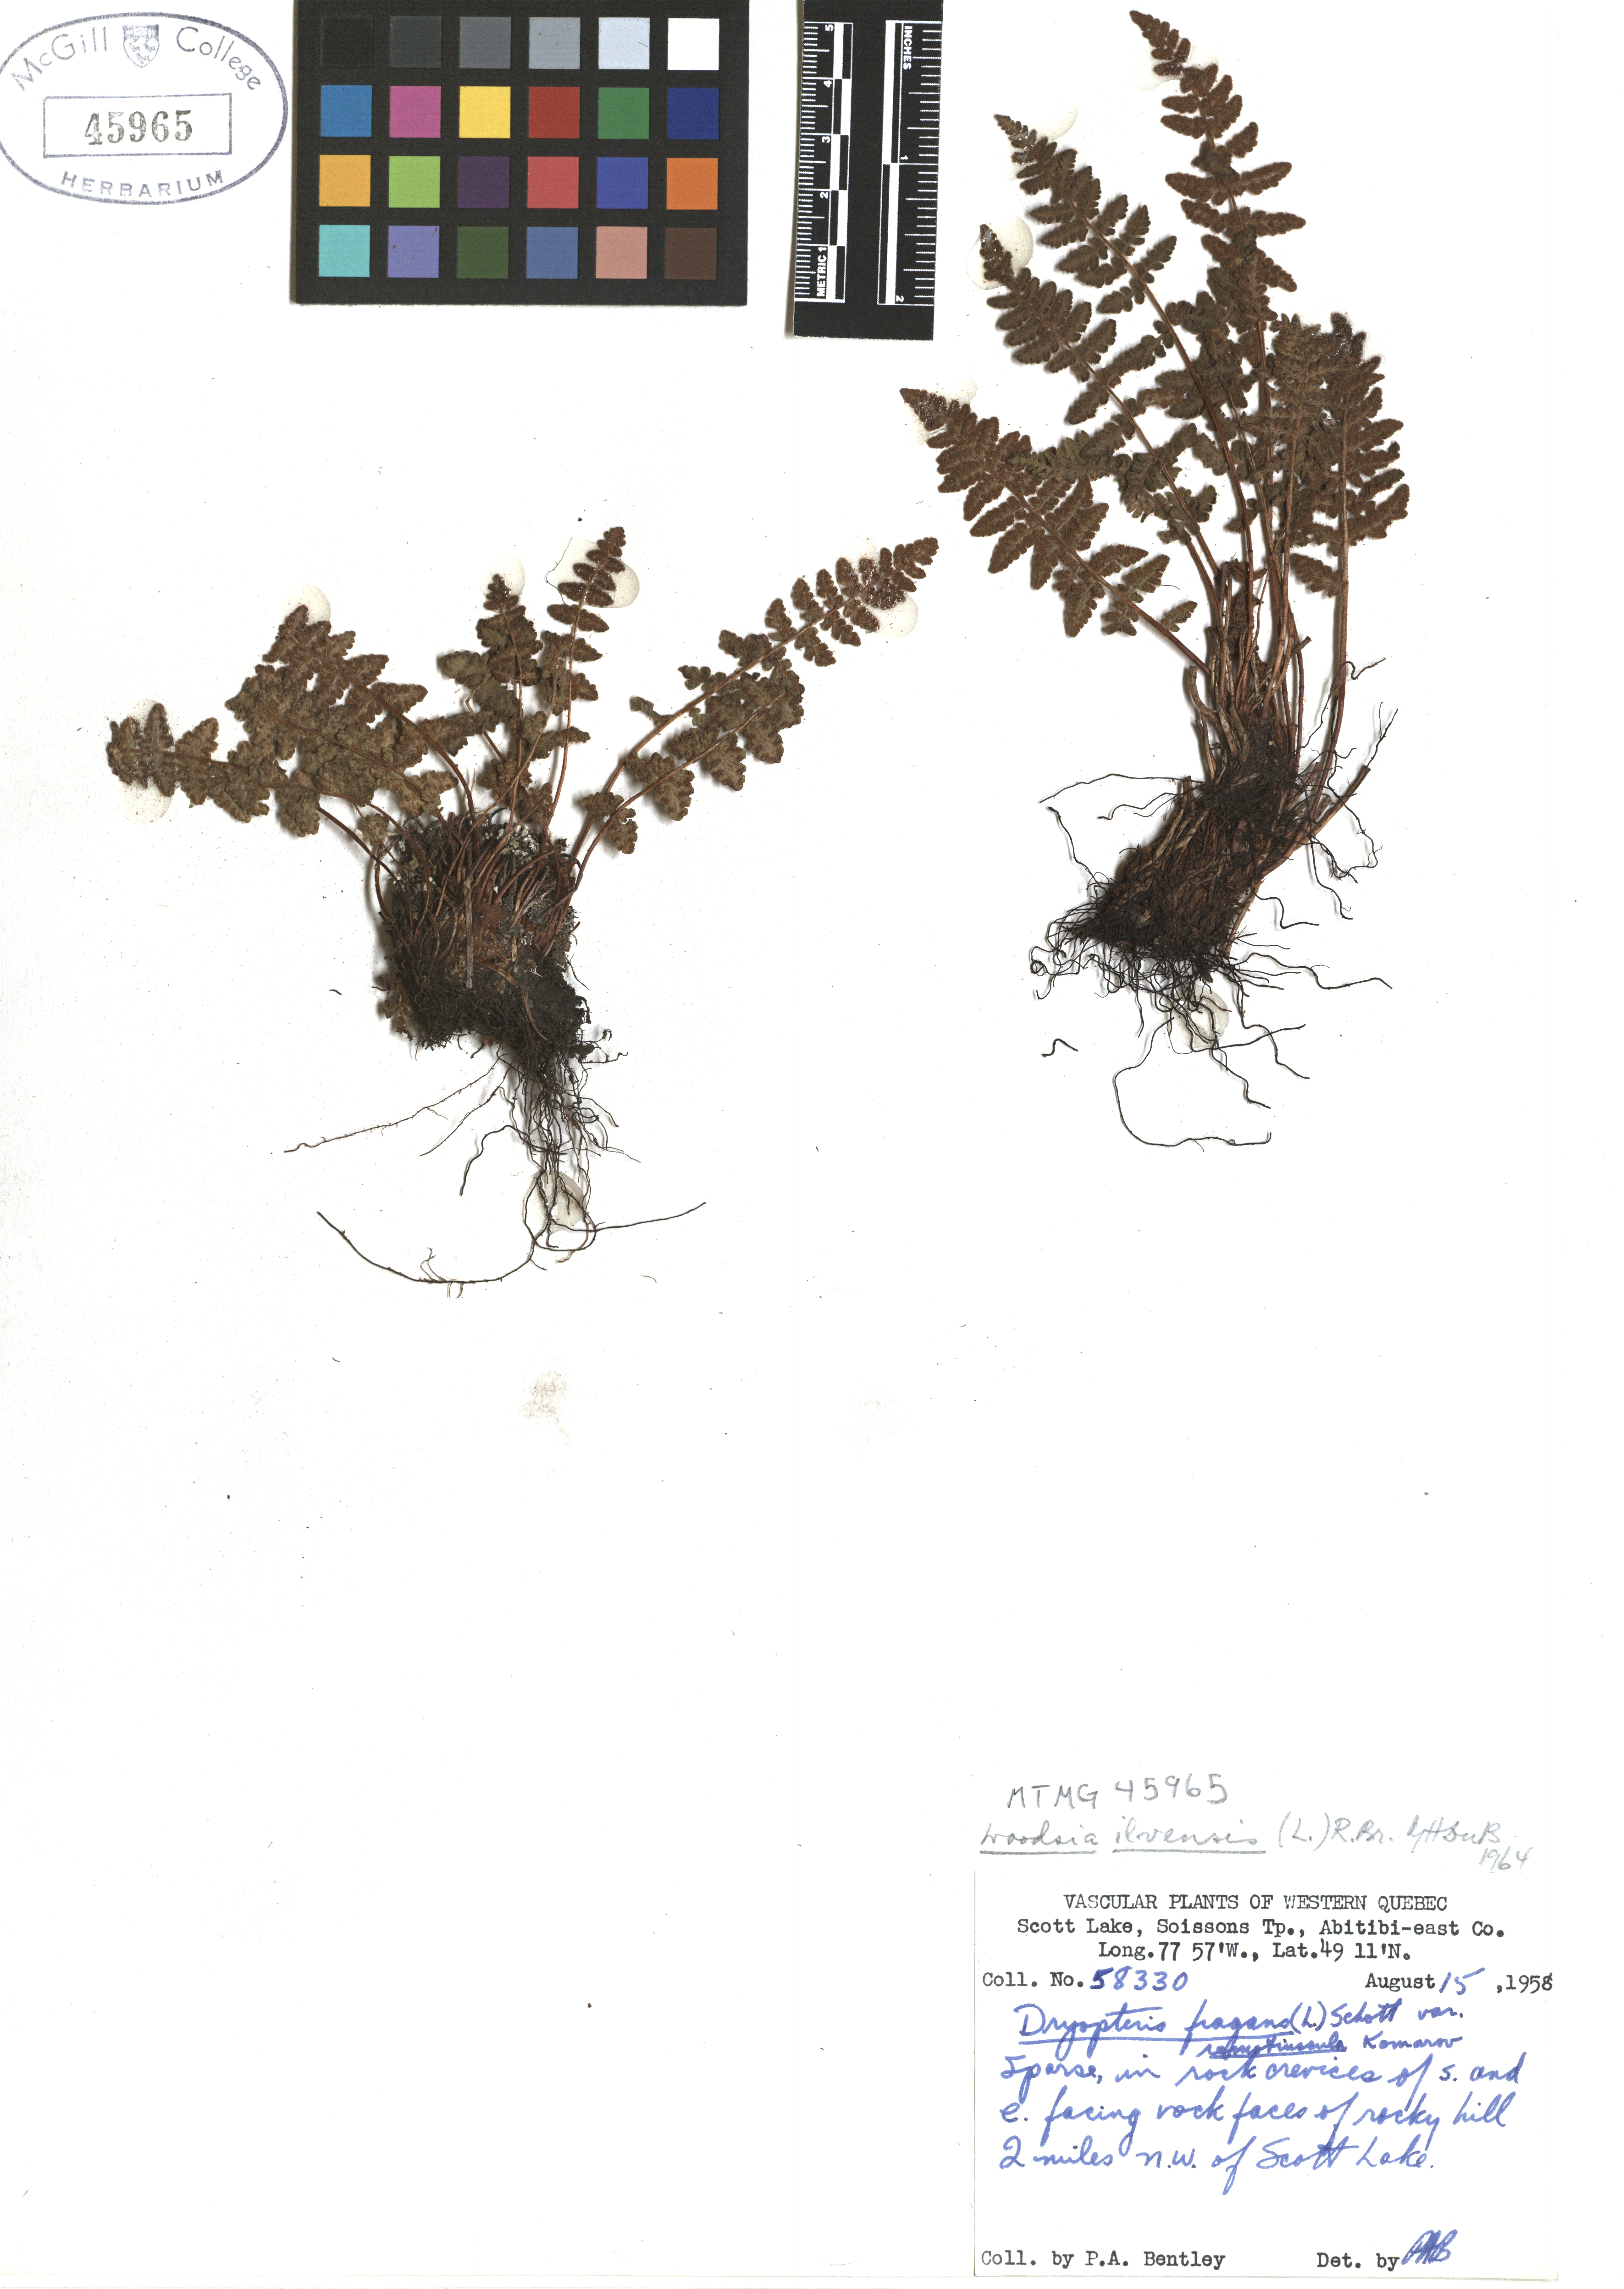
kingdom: Plantae
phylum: Tracheophyta
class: Polypodiopsida
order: Polypodiales
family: Woodsiaceae
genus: Woodsia
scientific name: Woodsia ilvensis
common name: Fragrant woodsia
